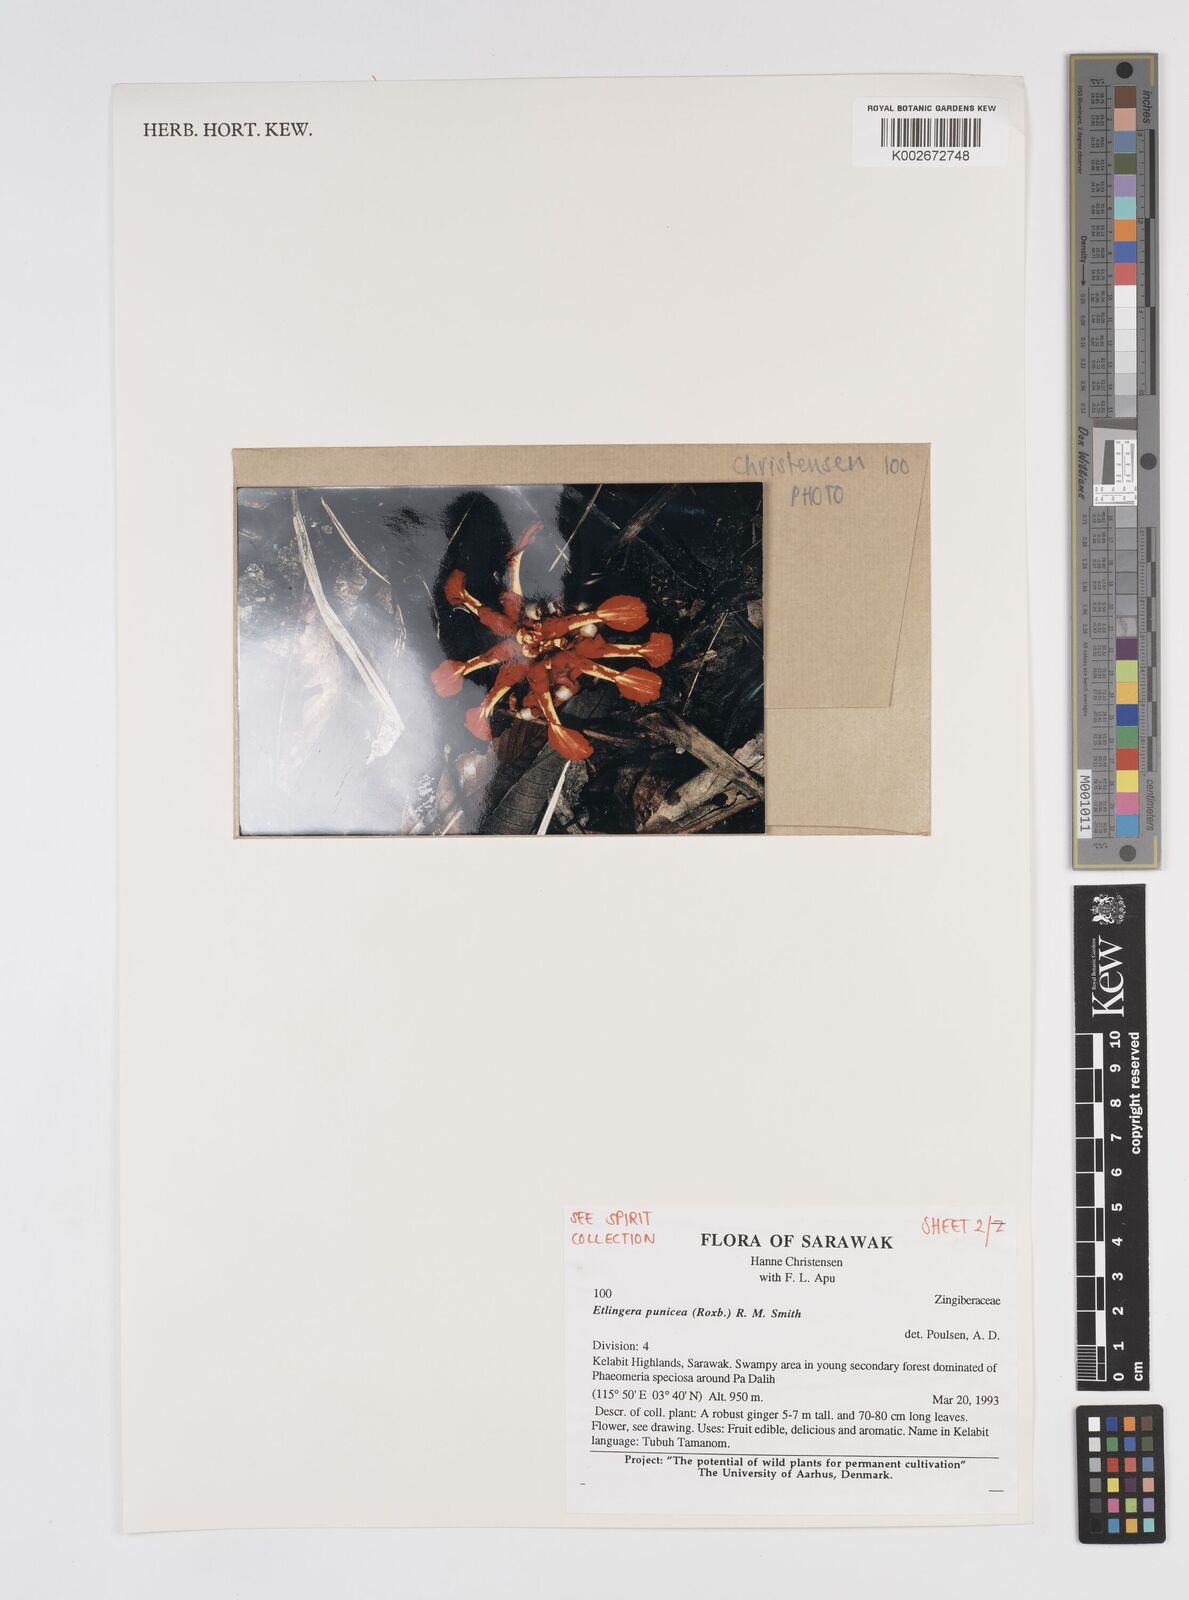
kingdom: Plantae
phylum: Tracheophyta
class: Liliopsida
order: Zingiberales
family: Zingiberaceae
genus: Etlingera
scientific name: Etlingera punicea
